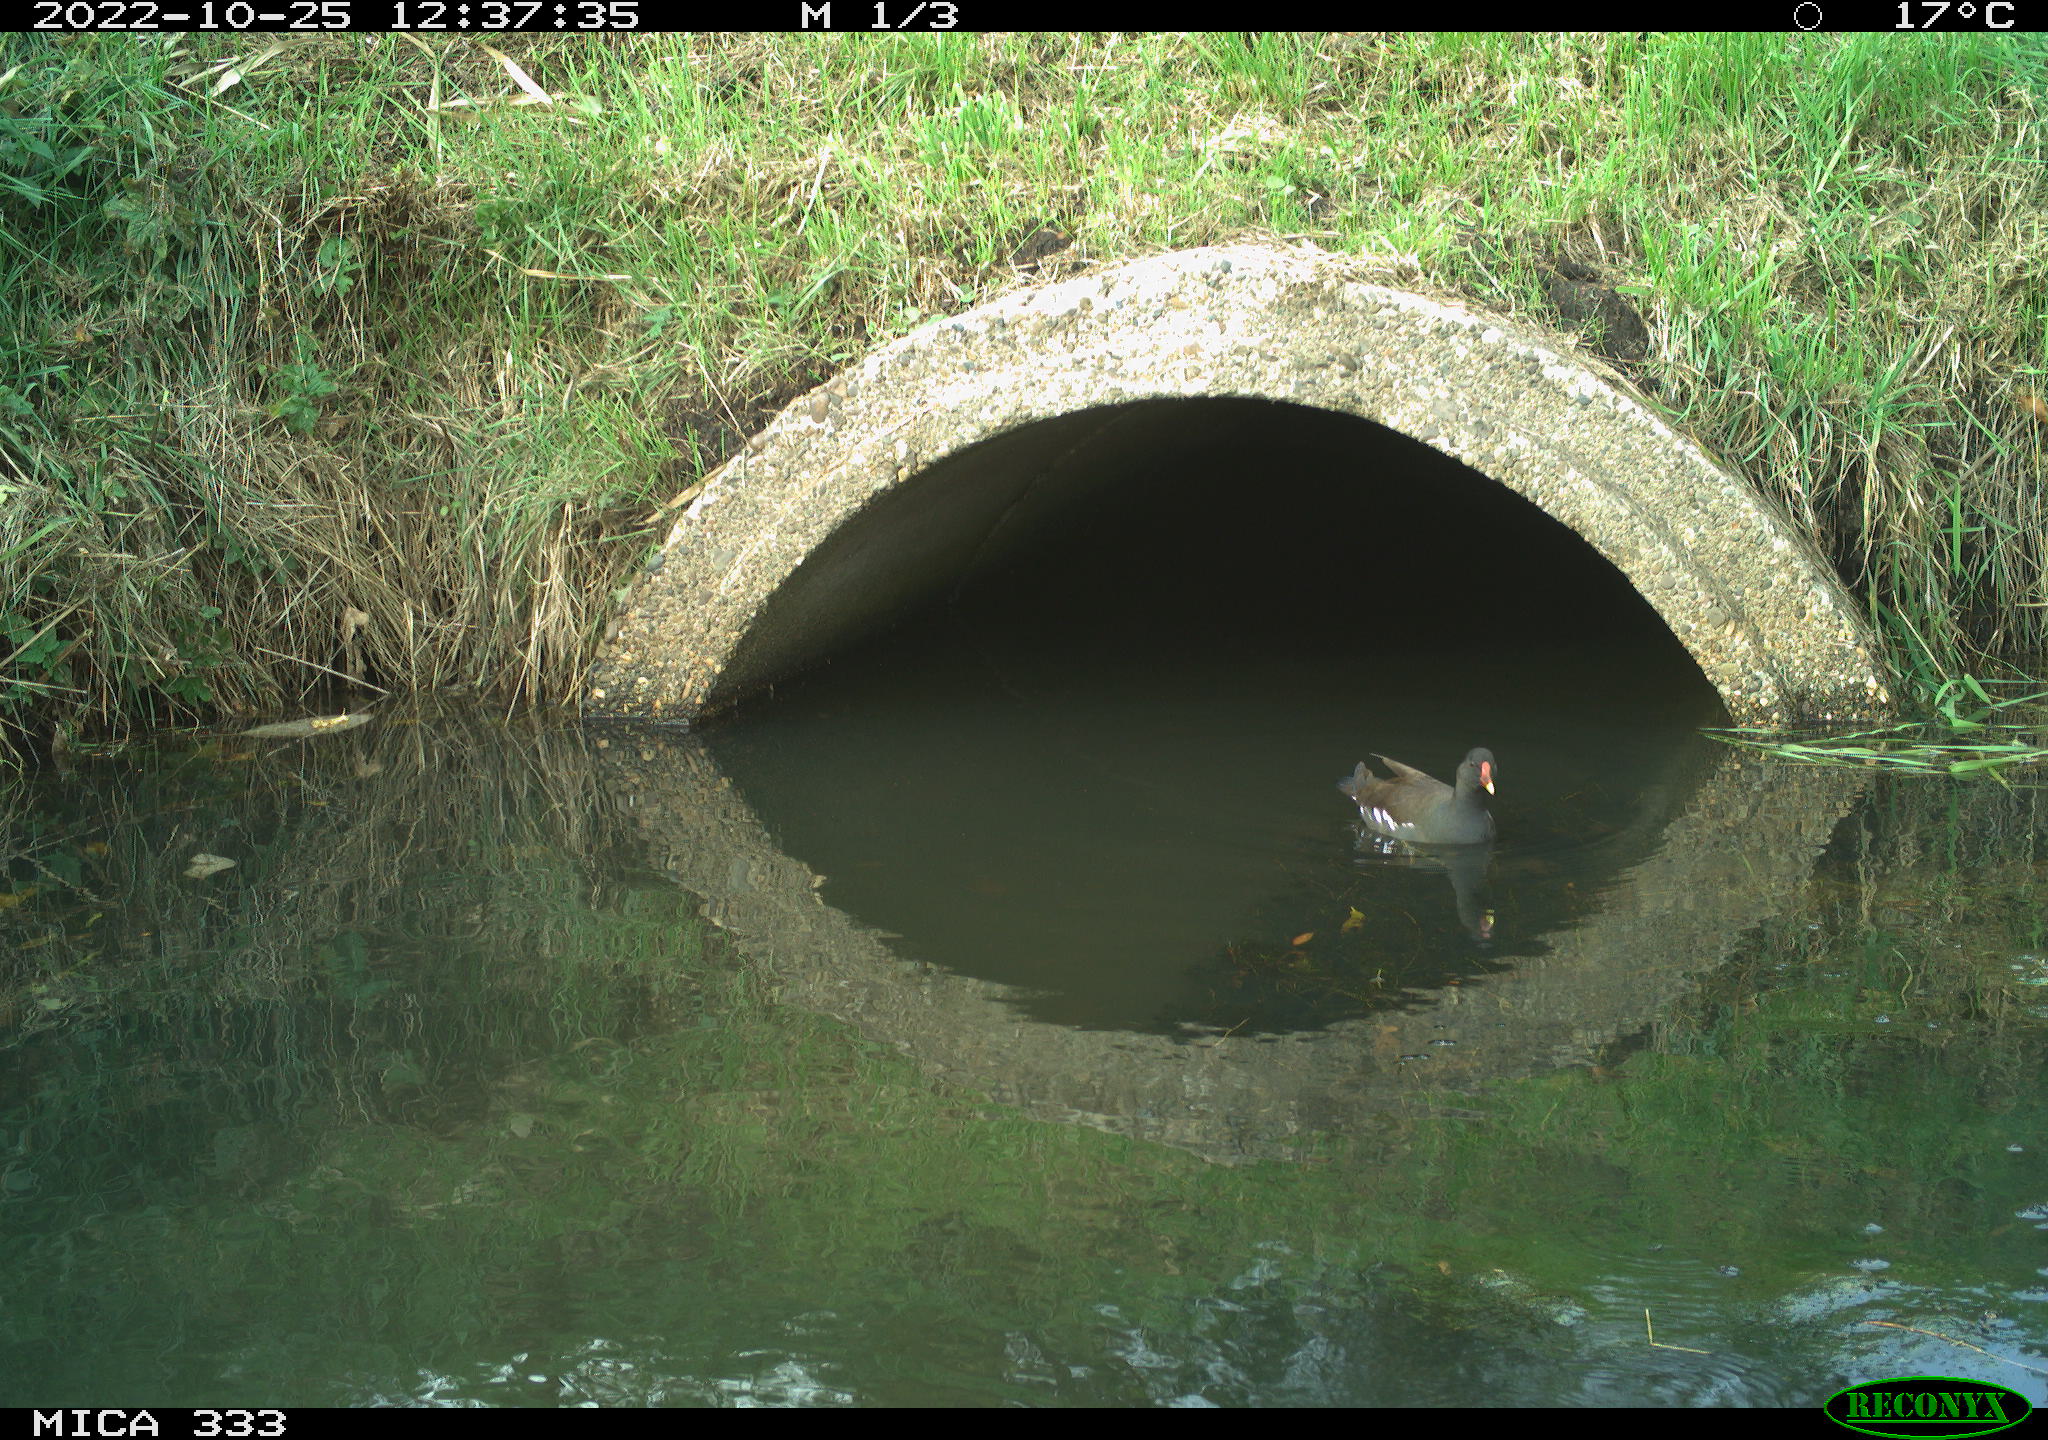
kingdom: Animalia
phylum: Chordata
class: Aves
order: Gruiformes
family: Rallidae
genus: Gallinula
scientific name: Gallinula chloropus
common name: Common moorhen
